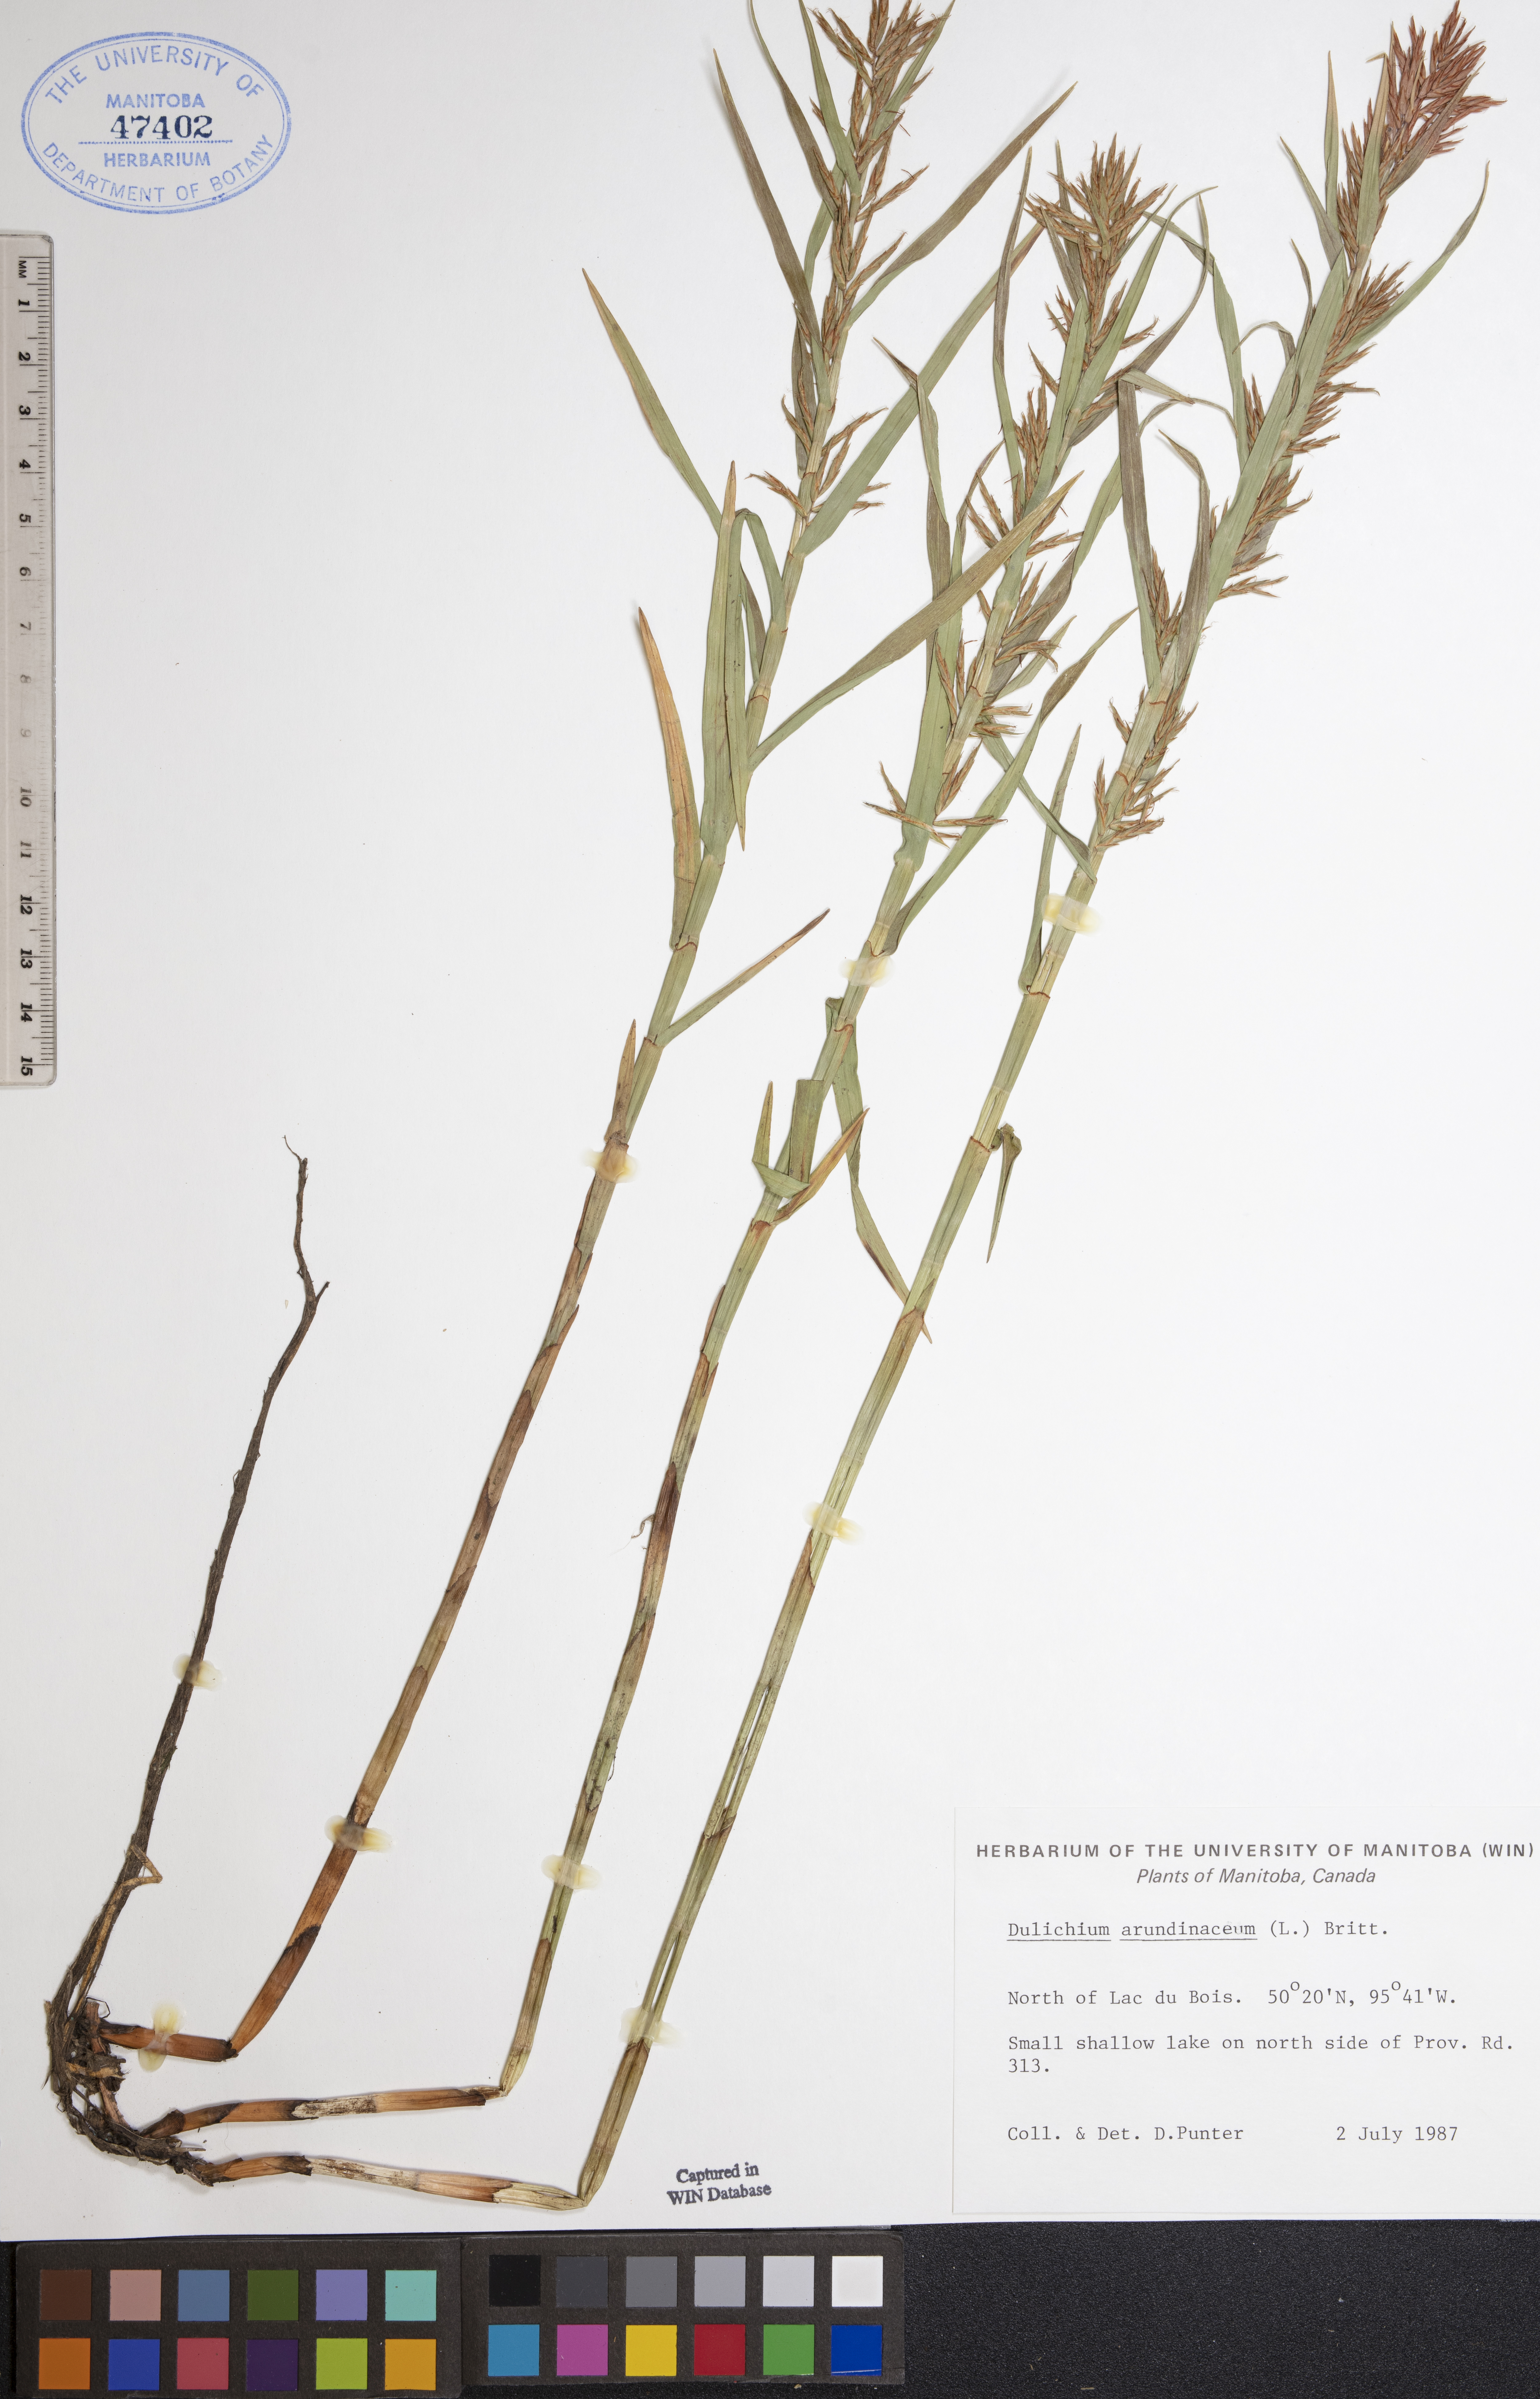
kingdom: Plantae
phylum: Tracheophyta
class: Liliopsida
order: Poales
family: Cyperaceae
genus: Dulichium
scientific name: Dulichium arundinaceum
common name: Three-way sedge
